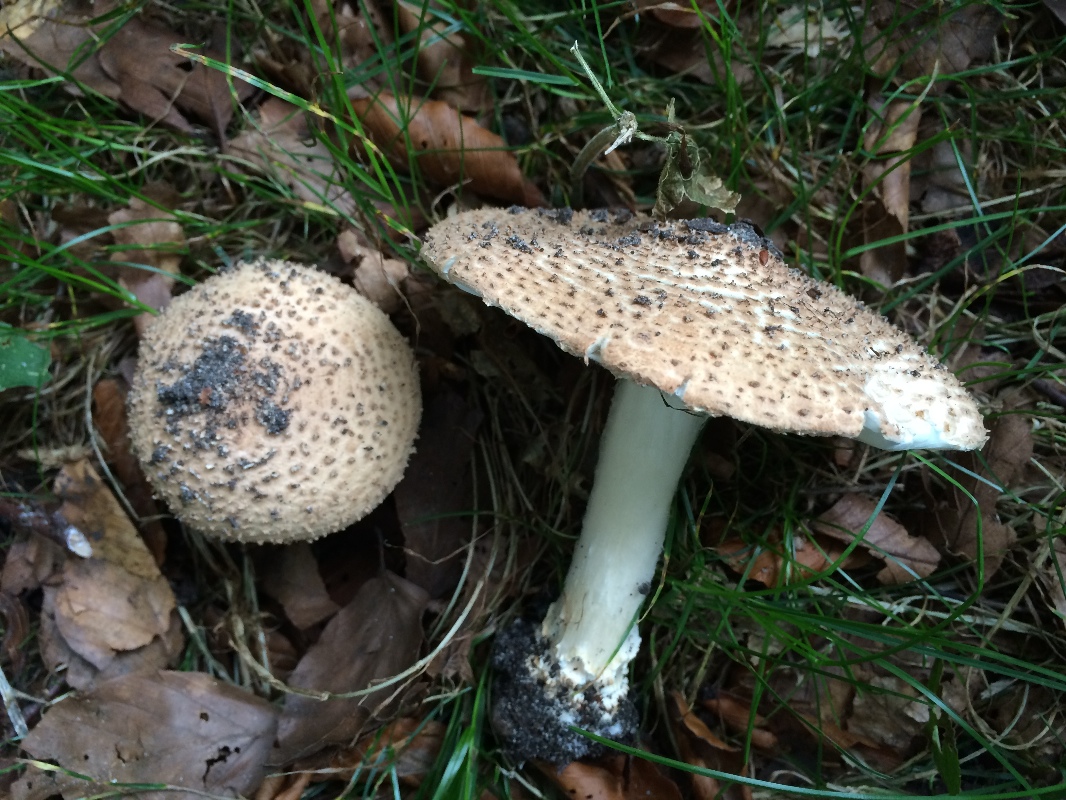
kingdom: Fungi
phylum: Basidiomycota
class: Agaricomycetes
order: Agaricales
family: Agaricaceae
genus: Echinoderma
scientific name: Echinoderma asperum
